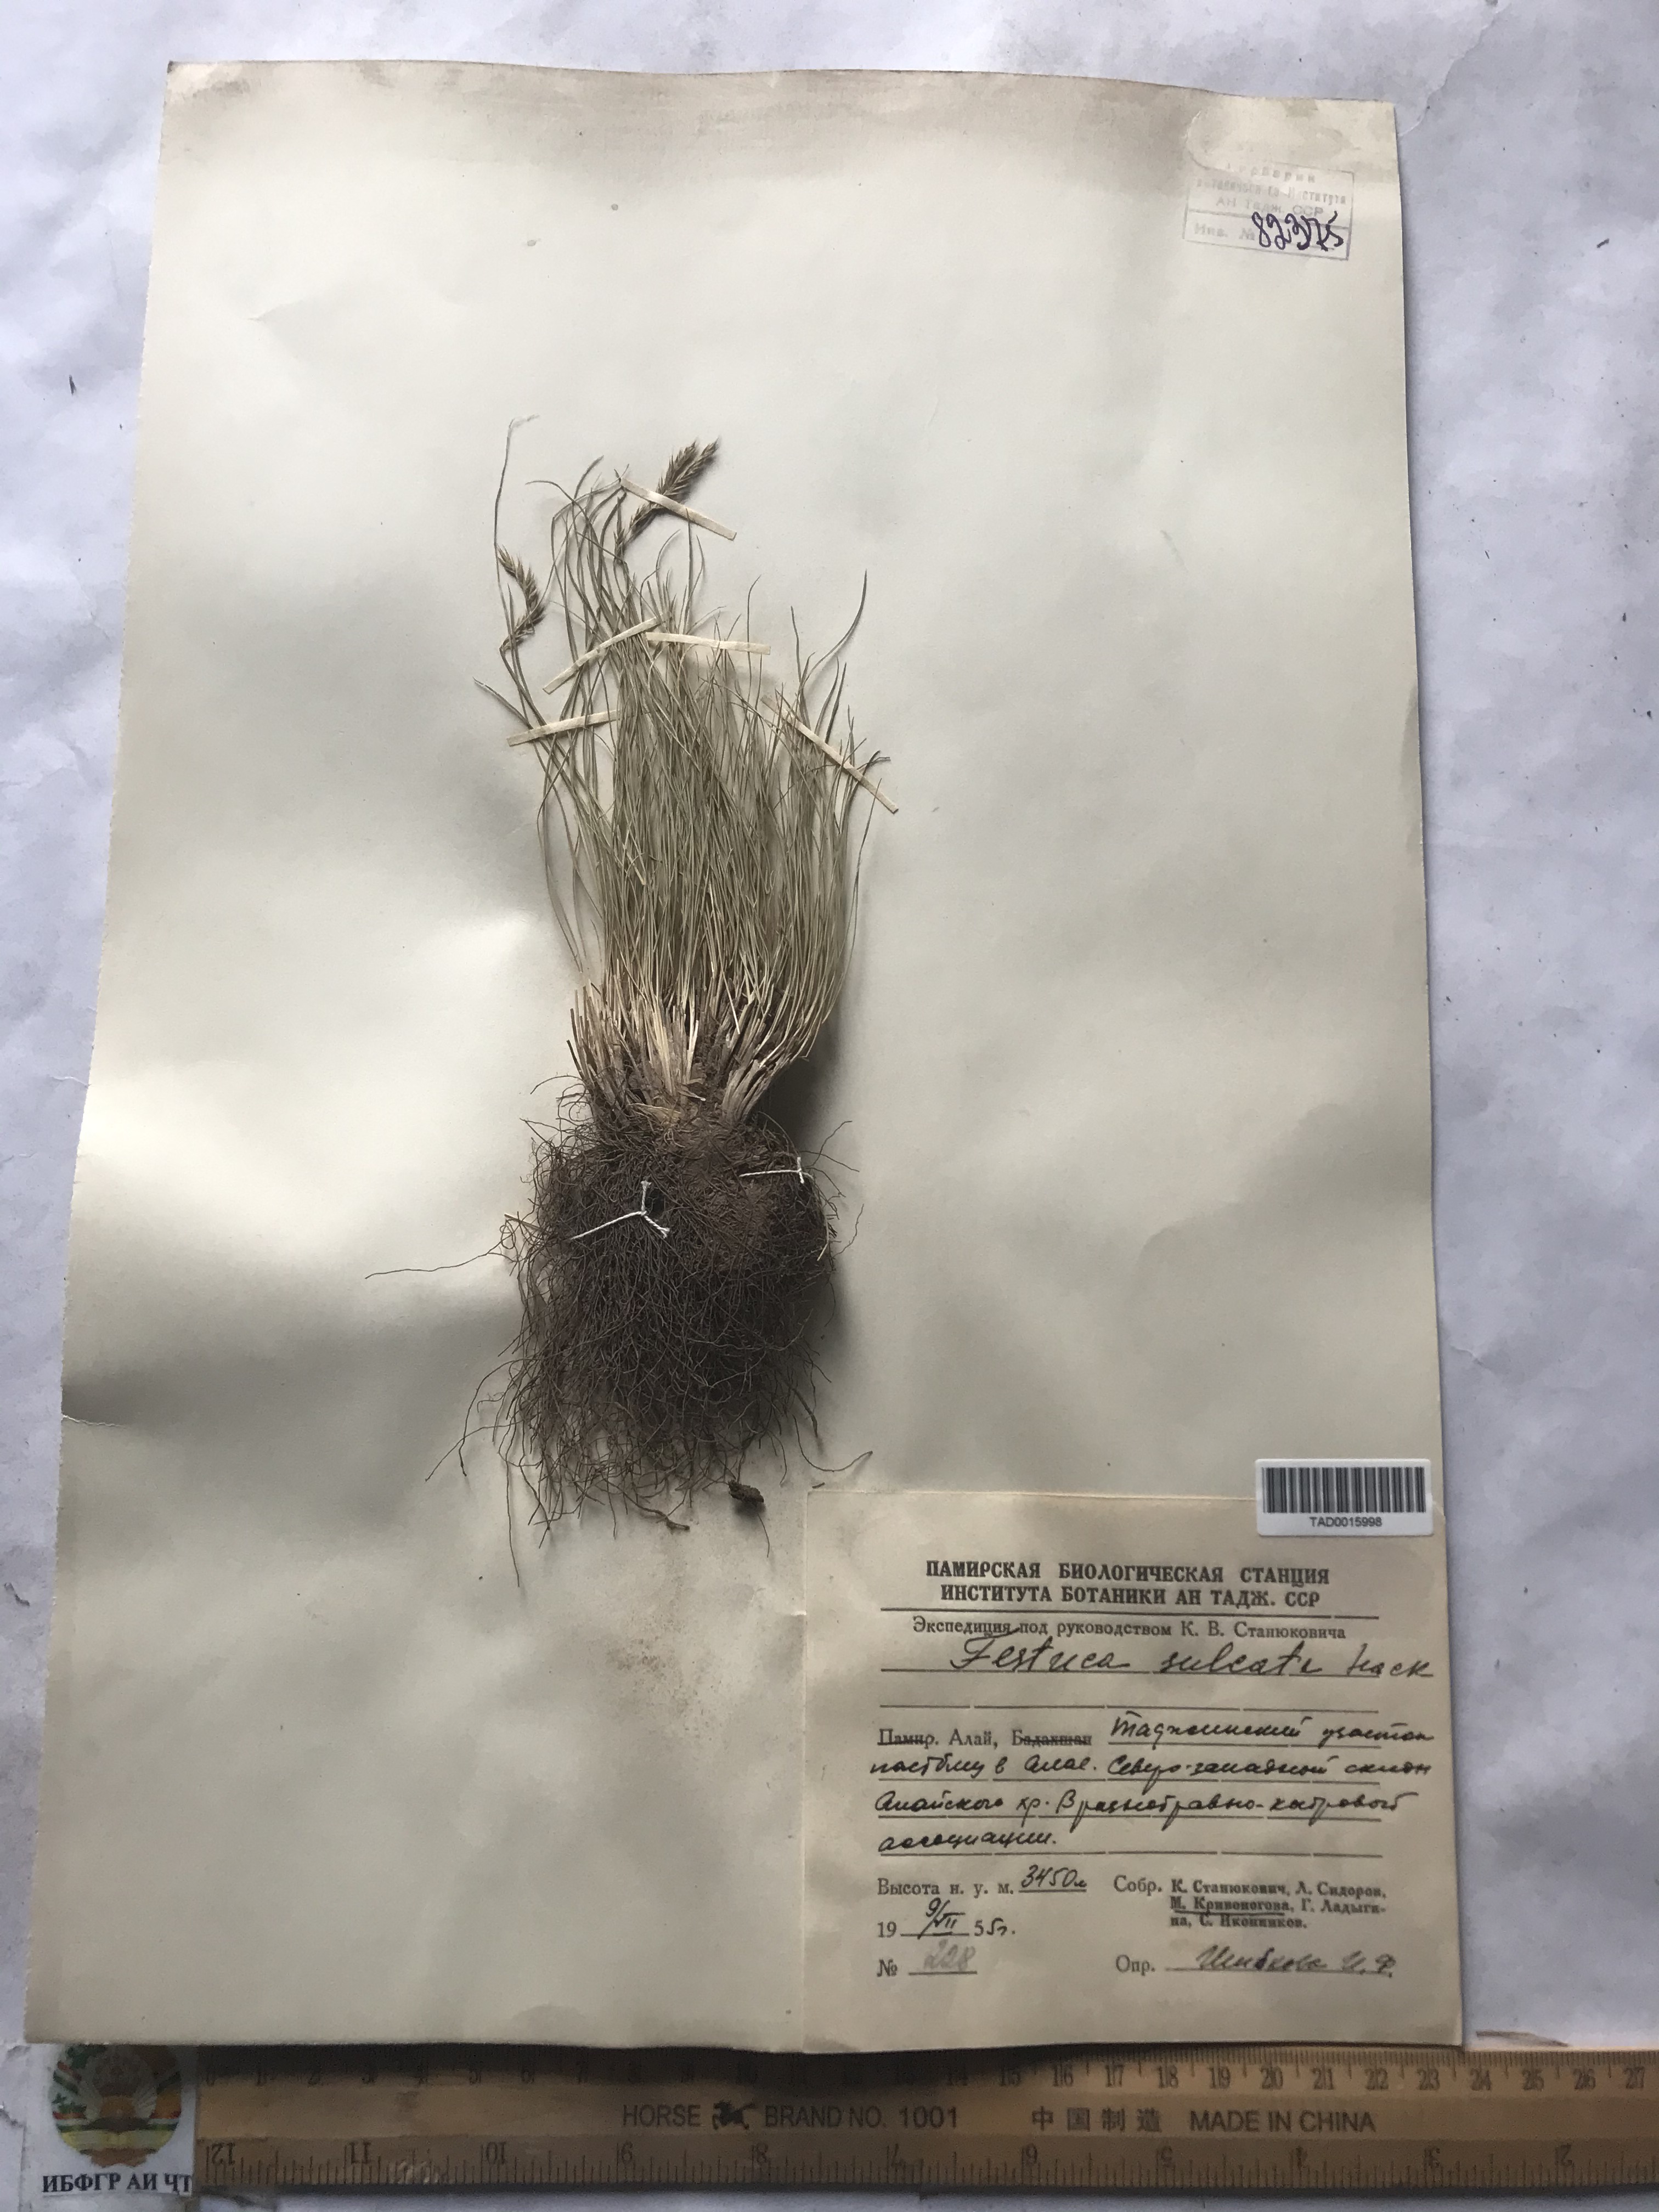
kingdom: Plantae
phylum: Tracheophyta
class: Liliopsida
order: Poales
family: Poaceae
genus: Festuca
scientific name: Festuca sulcata
